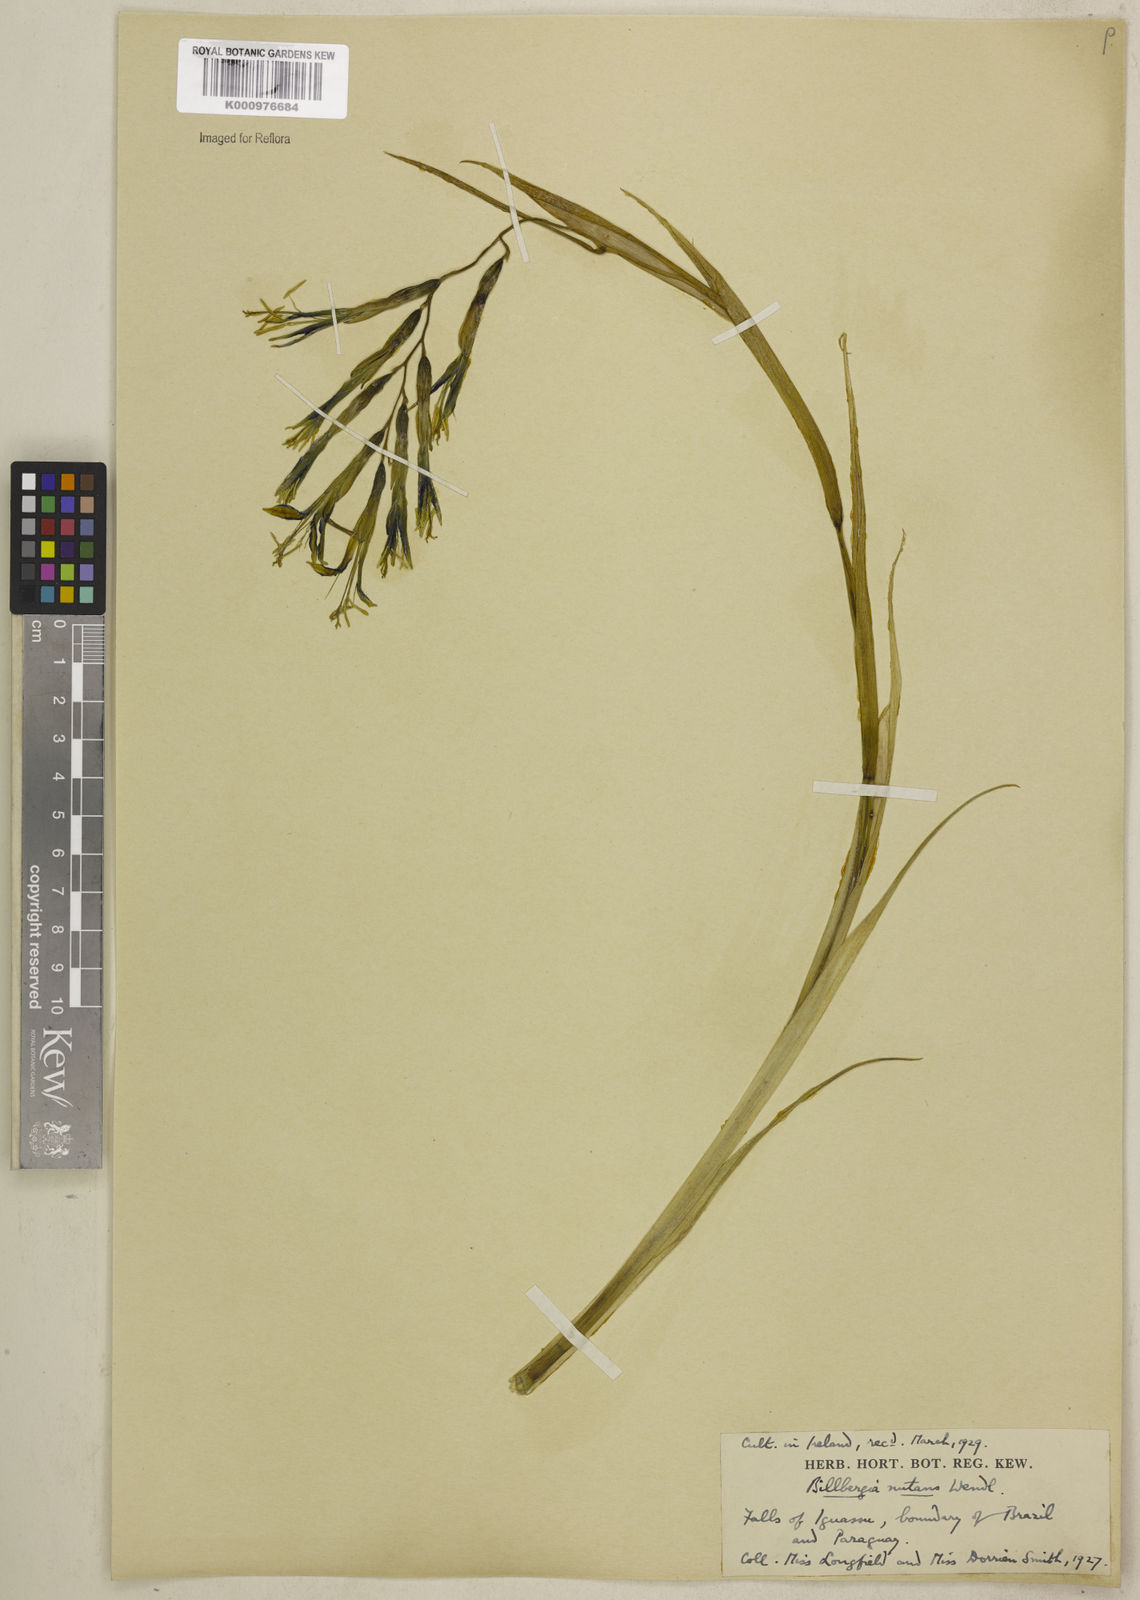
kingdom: Plantae
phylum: Tracheophyta
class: Liliopsida
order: Poales
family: Bromeliaceae
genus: Billbergia
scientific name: Billbergia nutans
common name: Friendship-plant
